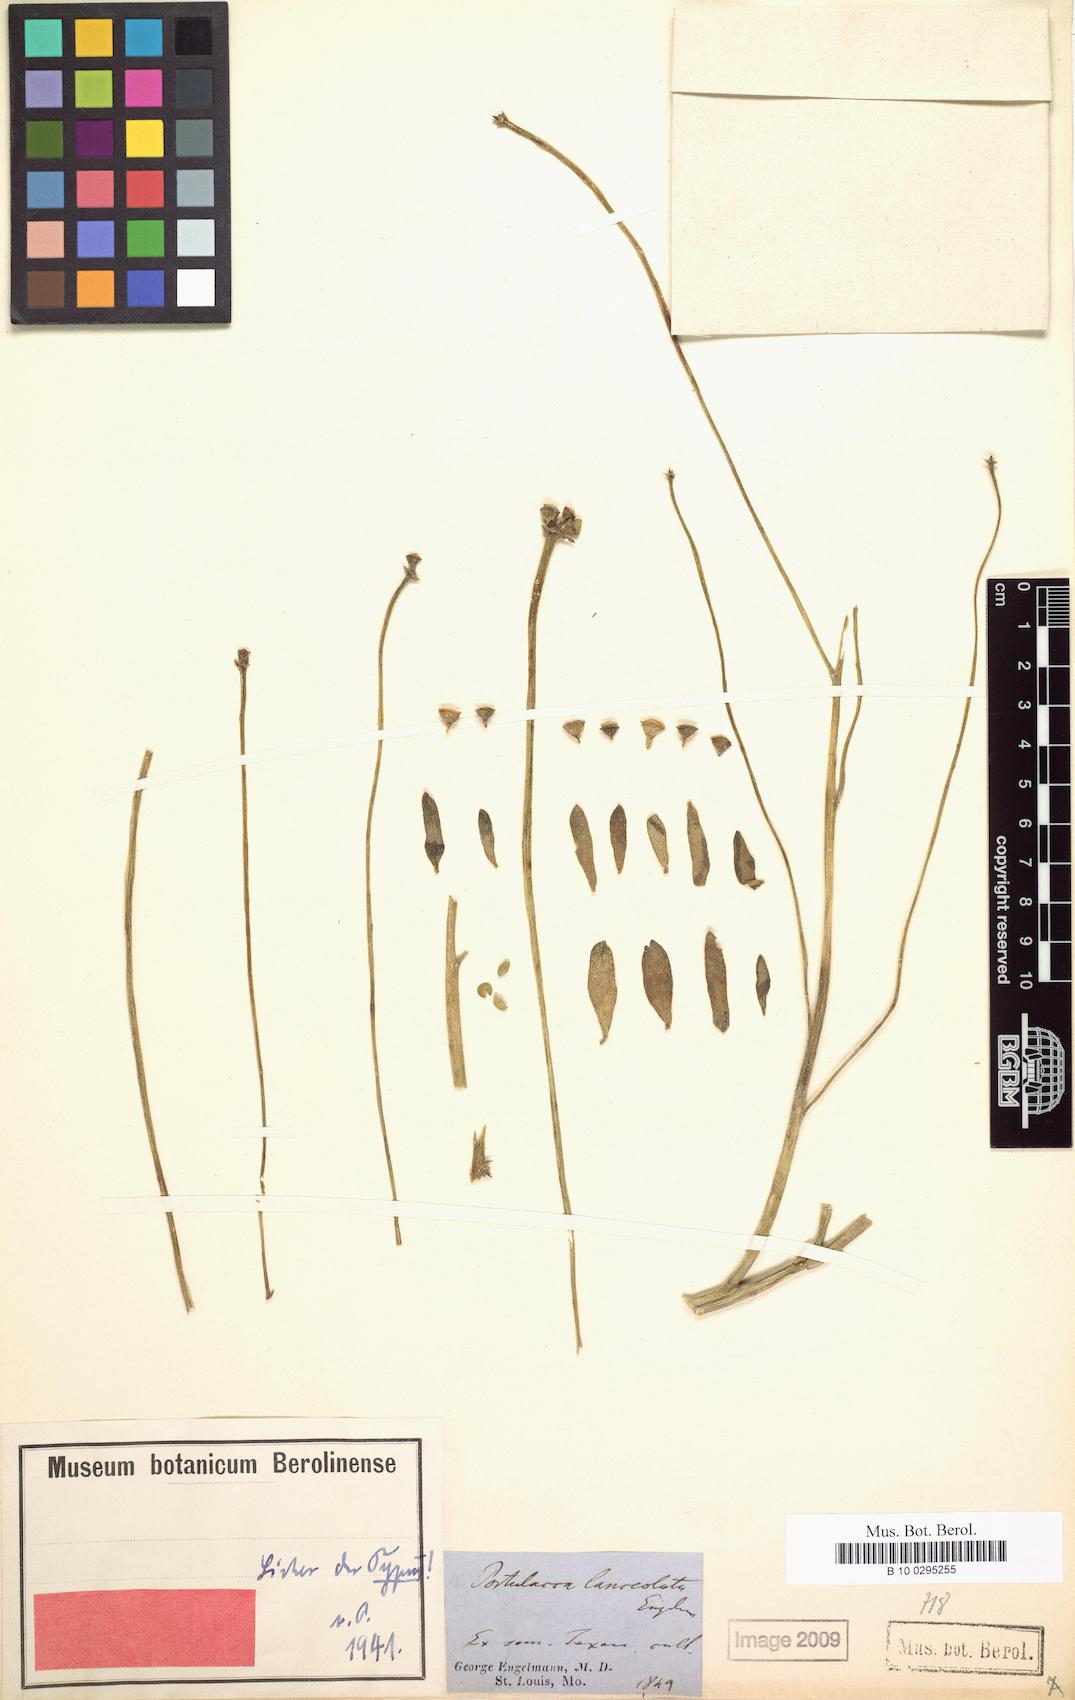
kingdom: Plantae
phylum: Tracheophyta
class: Magnoliopsida
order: Caryophyllales
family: Portulacaceae
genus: Portulaca
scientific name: Portulaca umbraticola
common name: Wingpod purslane
